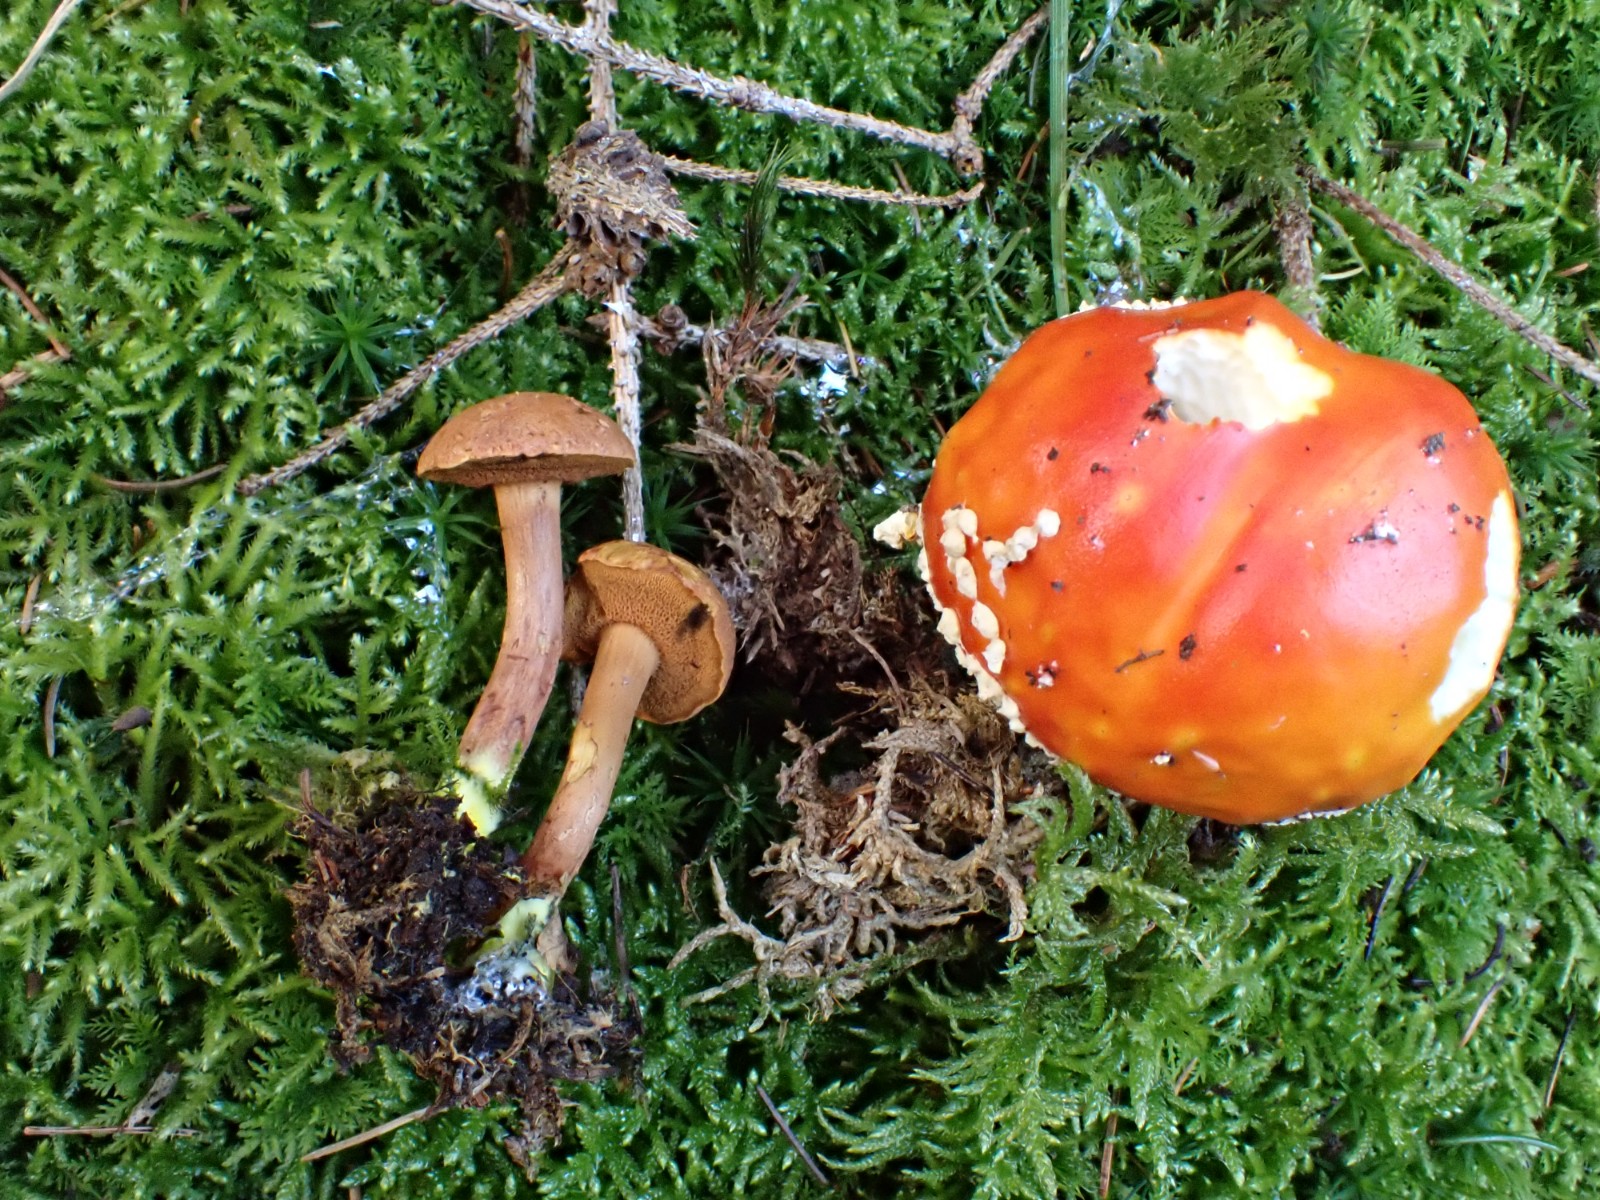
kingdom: Fungi
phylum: Basidiomycota
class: Agaricomycetes
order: Boletales
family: Boletaceae
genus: Chalciporus
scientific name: Chalciporus piperatus
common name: peberrørhat
